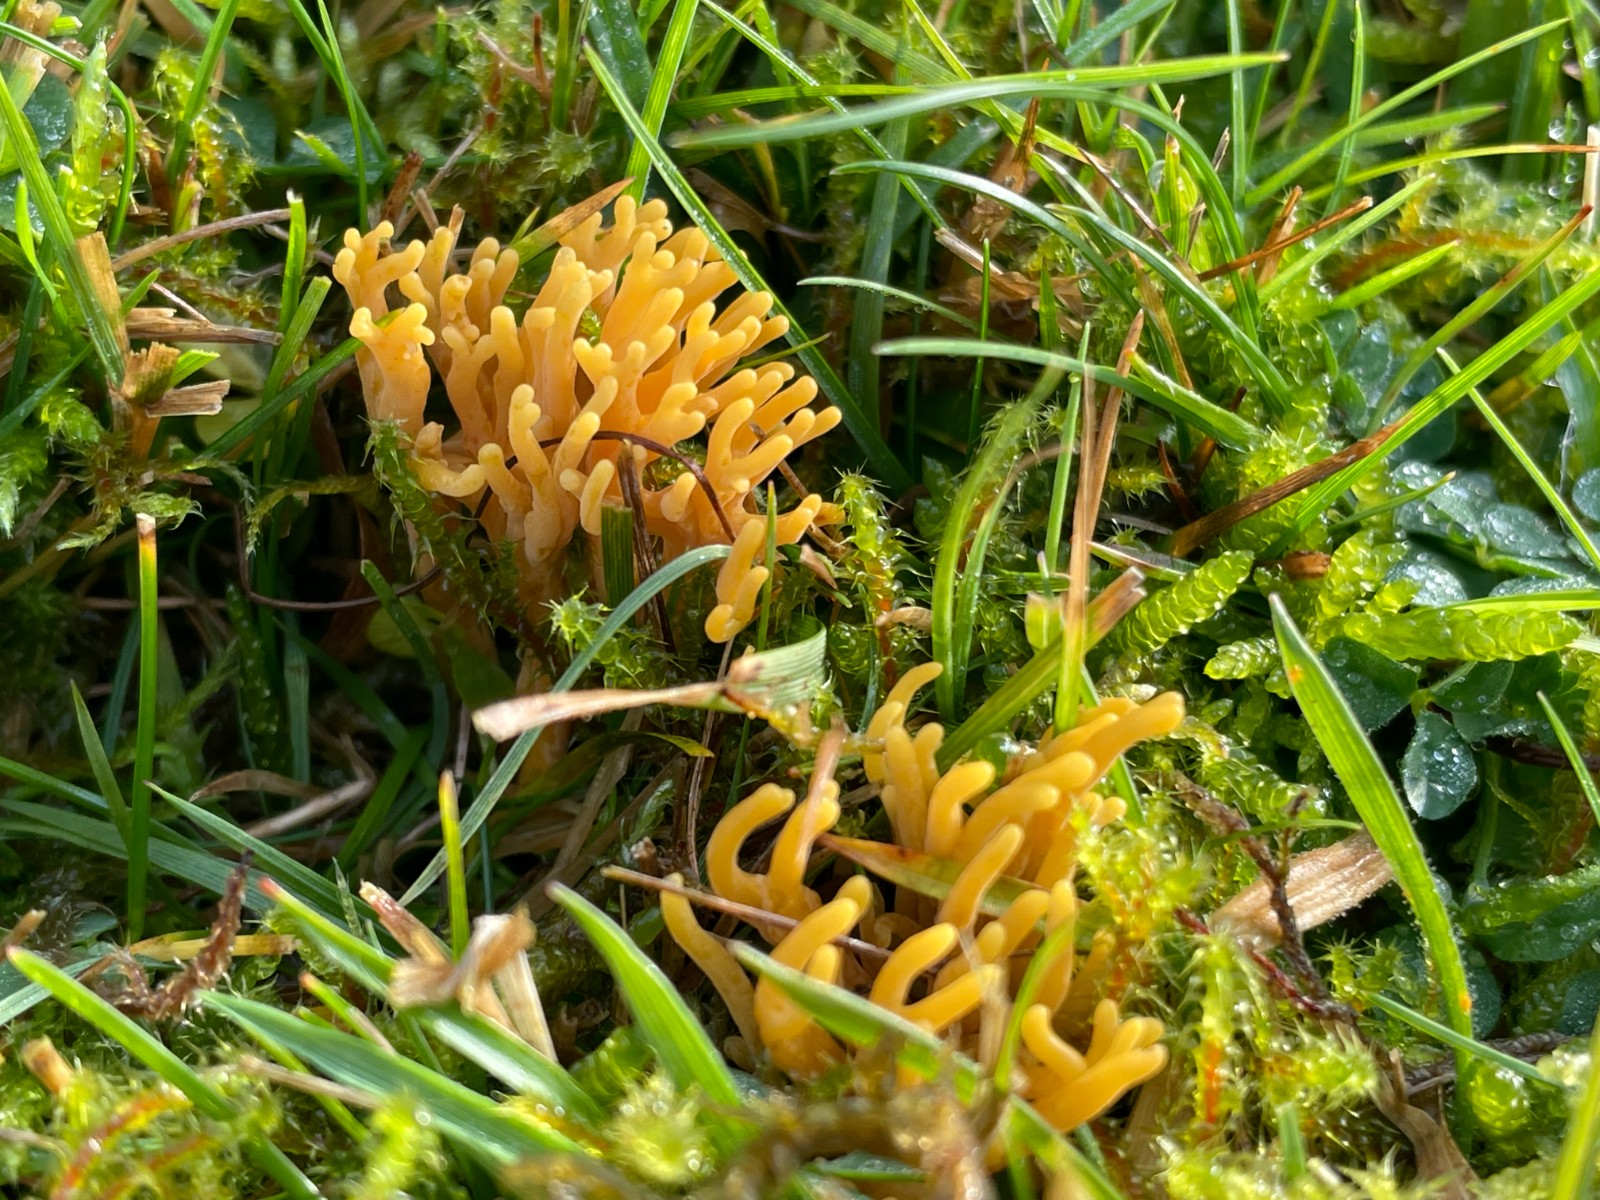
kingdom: Fungi
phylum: Basidiomycota
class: Agaricomycetes
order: Agaricales
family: Clavariaceae
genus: Clavulinopsis
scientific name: Clavulinopsis corniculata
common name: eng-køllesvamp
